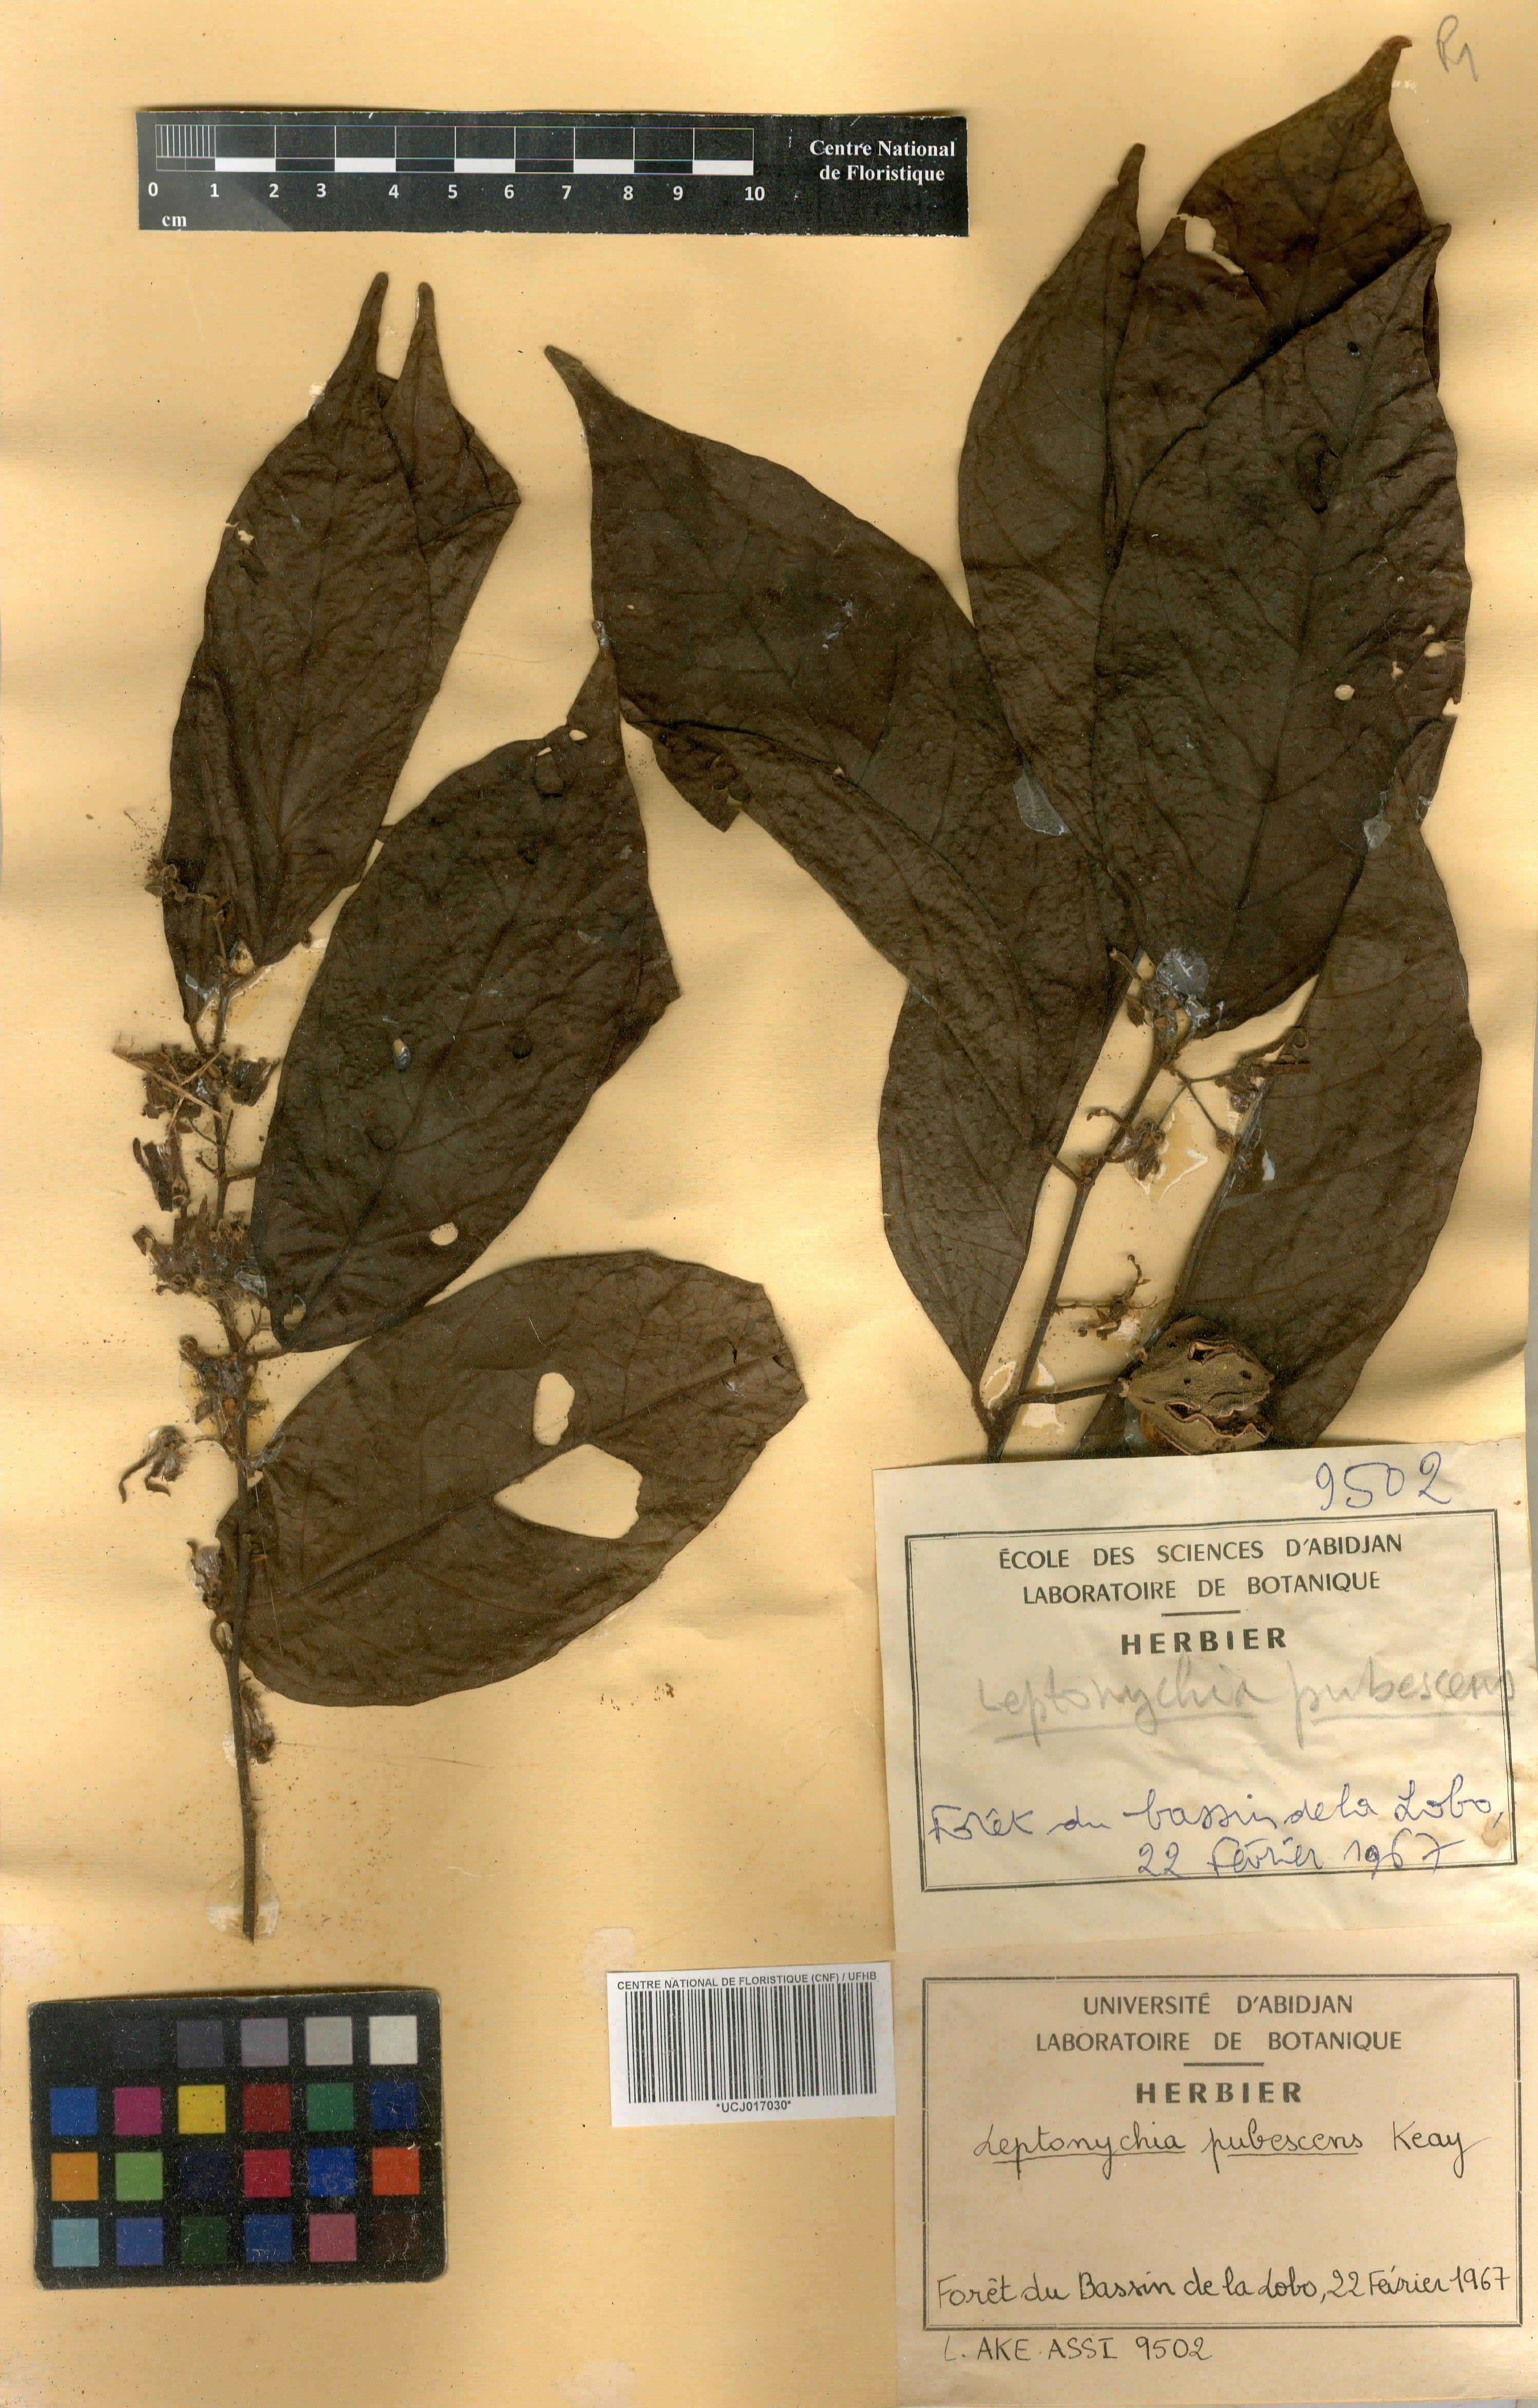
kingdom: Plantae
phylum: Tracheophyta
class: Magnoliopsida
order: Malvales
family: Malvaceae
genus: Leptonychia
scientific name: Leptonychia pubescens
